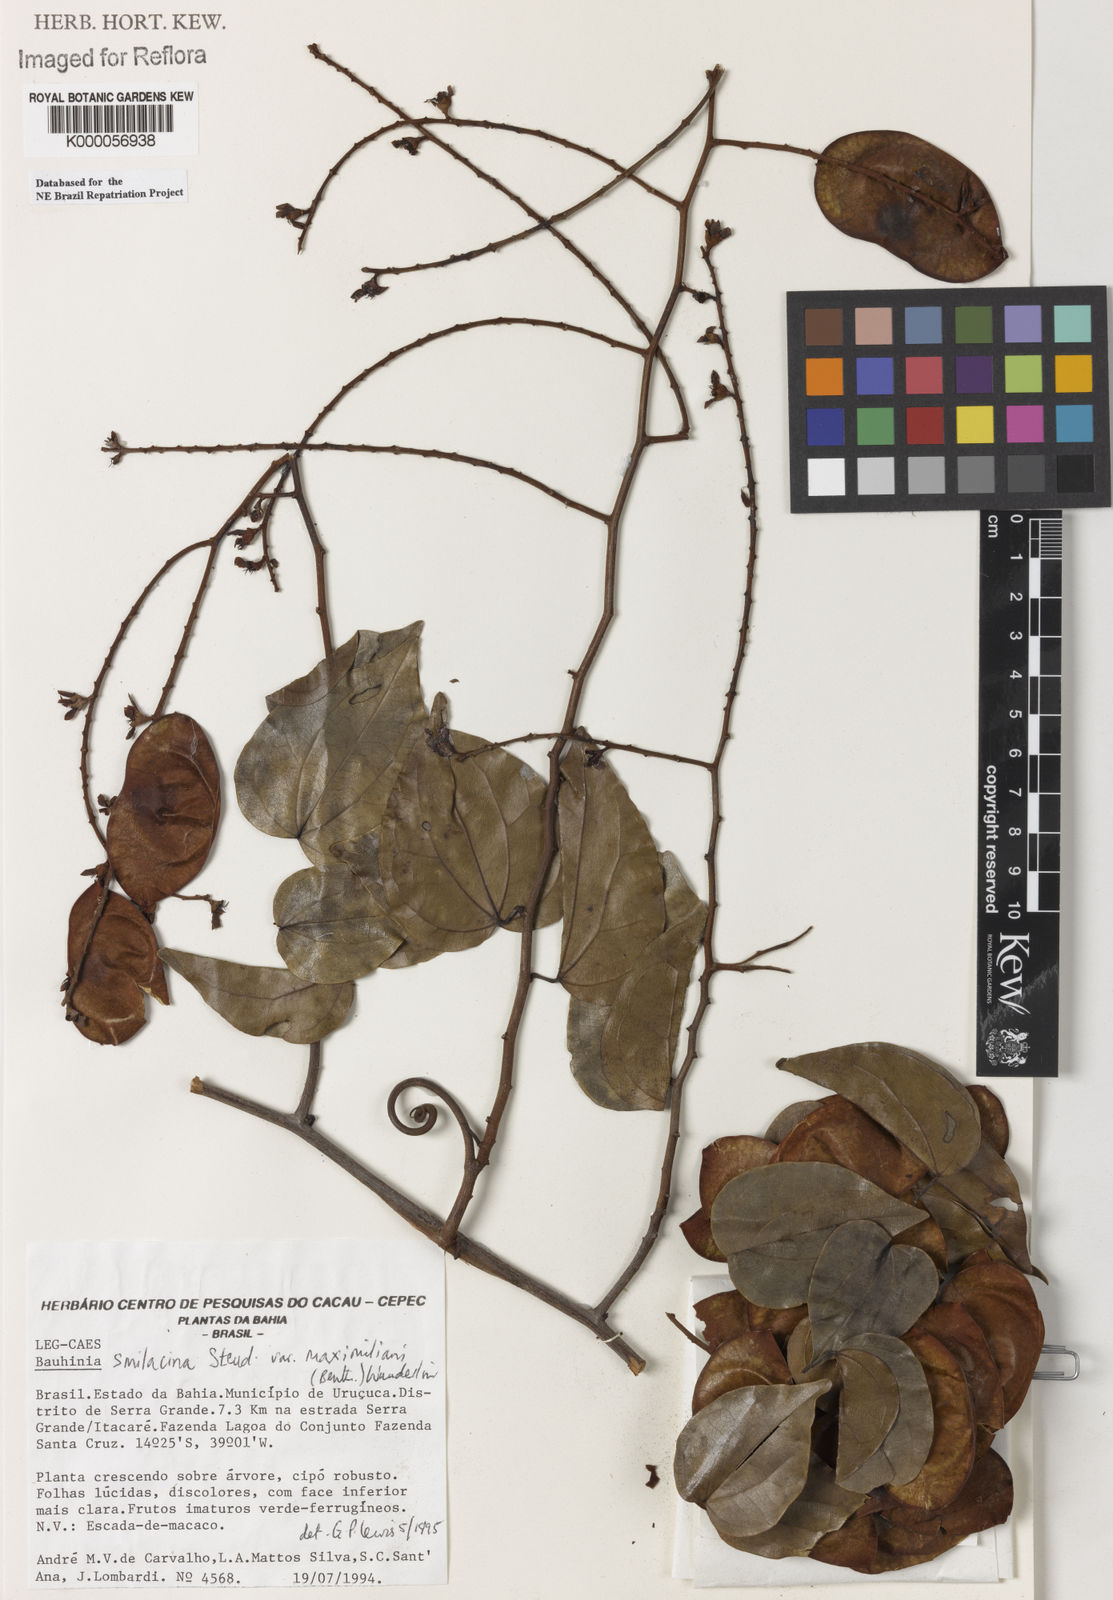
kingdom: Plantae
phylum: Tracheophyta
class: Magnoliopsida
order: Fabales
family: Fabaceae
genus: Schnella
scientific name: Schnella smilacina
